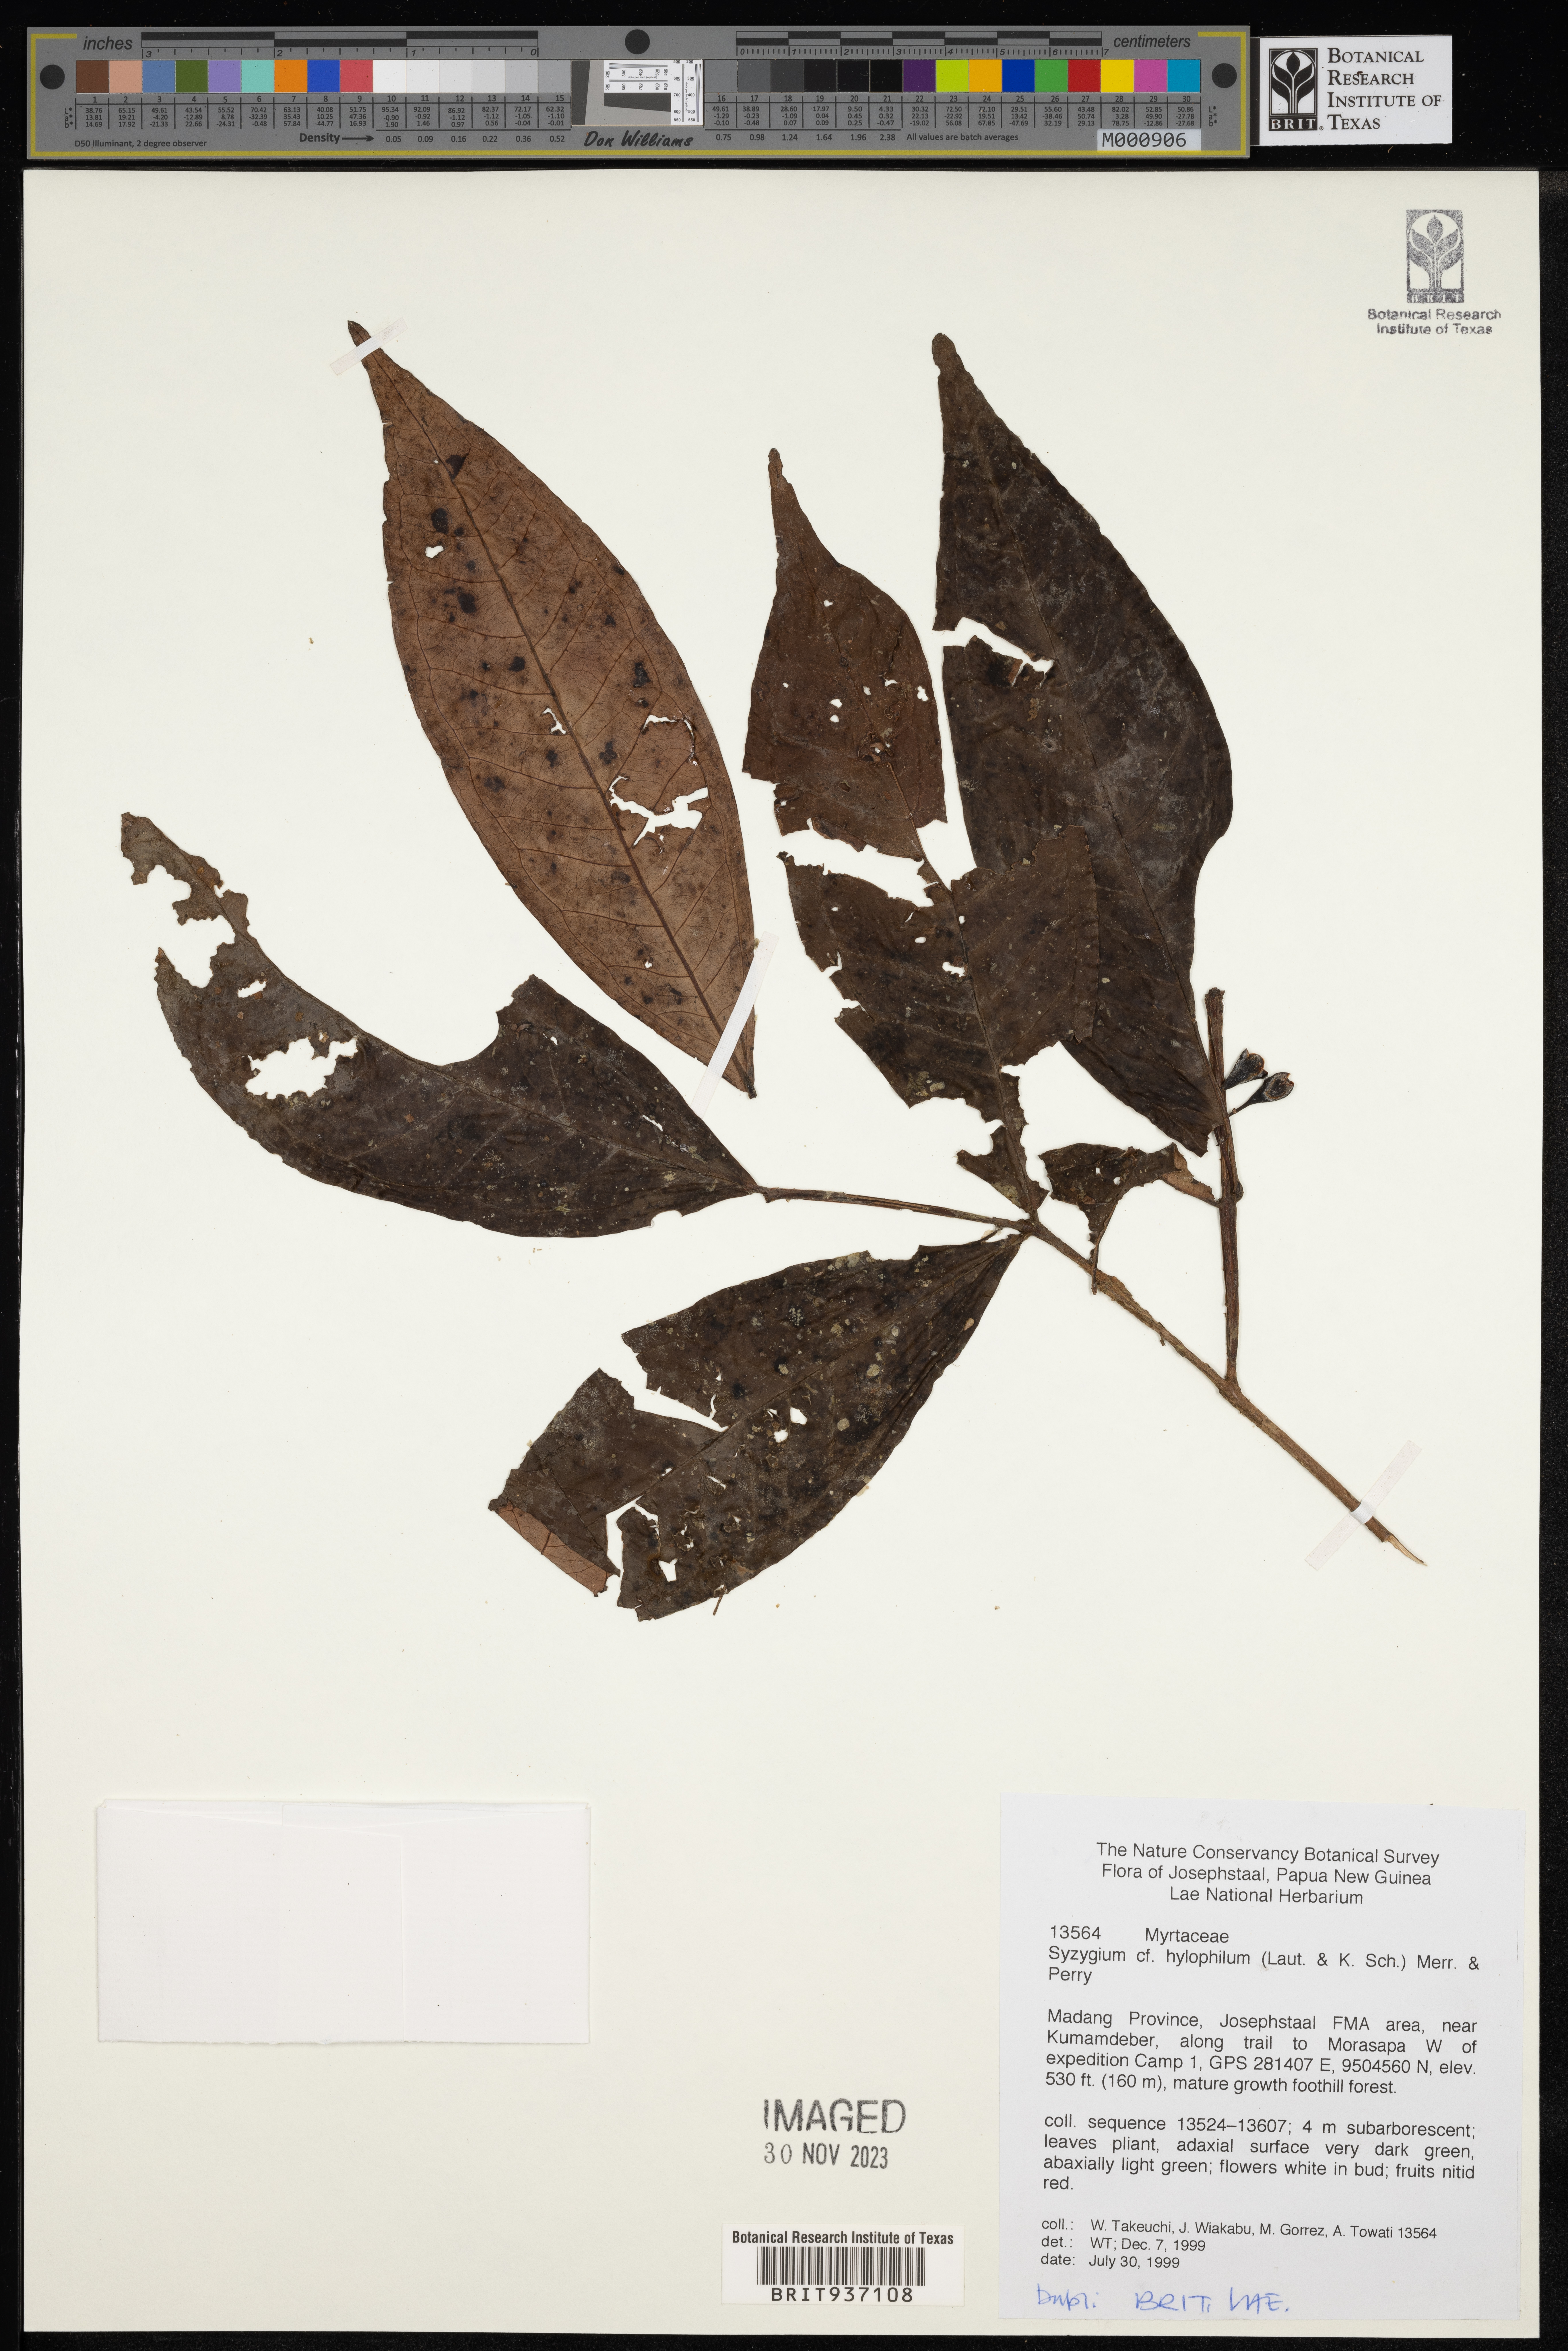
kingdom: Plantae
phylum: Tracheophyta
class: Magnoliopsida
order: Myrtales
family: Myrtaceae
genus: Syzygium
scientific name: Syzygium
